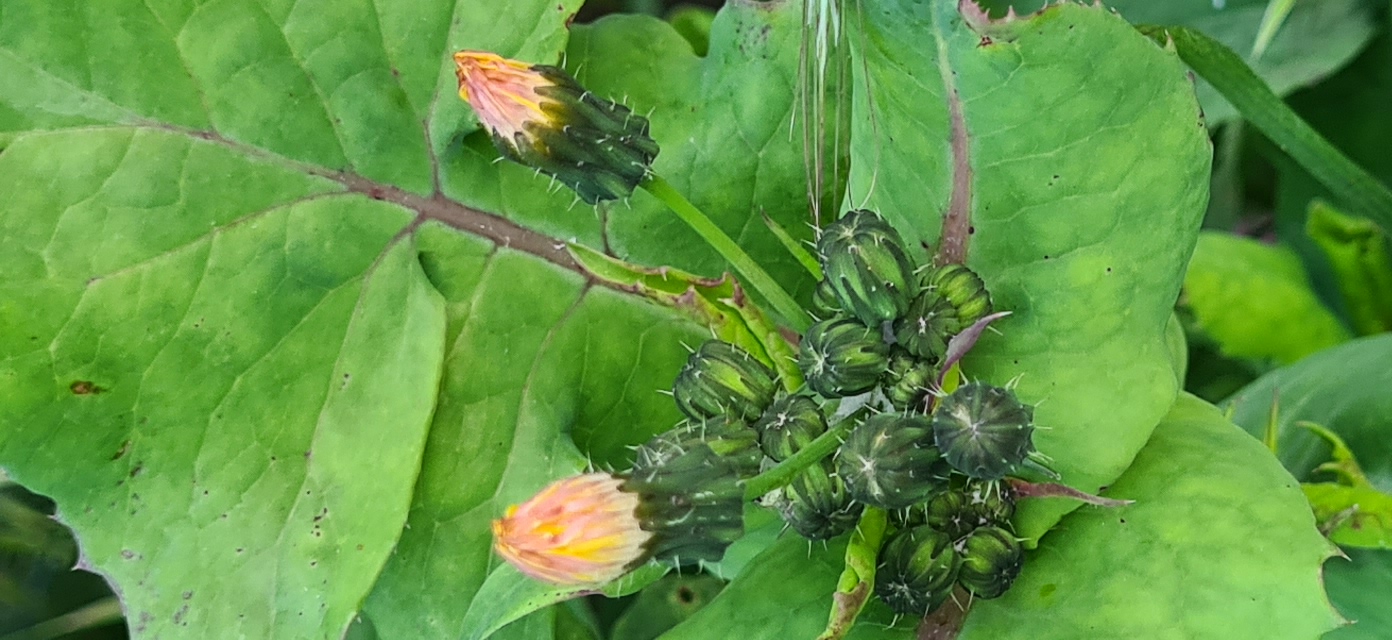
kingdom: Plantae
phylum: Tracheophyta
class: Magnoliopsida
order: Asterales
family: Asteraceae
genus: Sonchus
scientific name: Sonchus oleraceus
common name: Almindelig svinemælk
